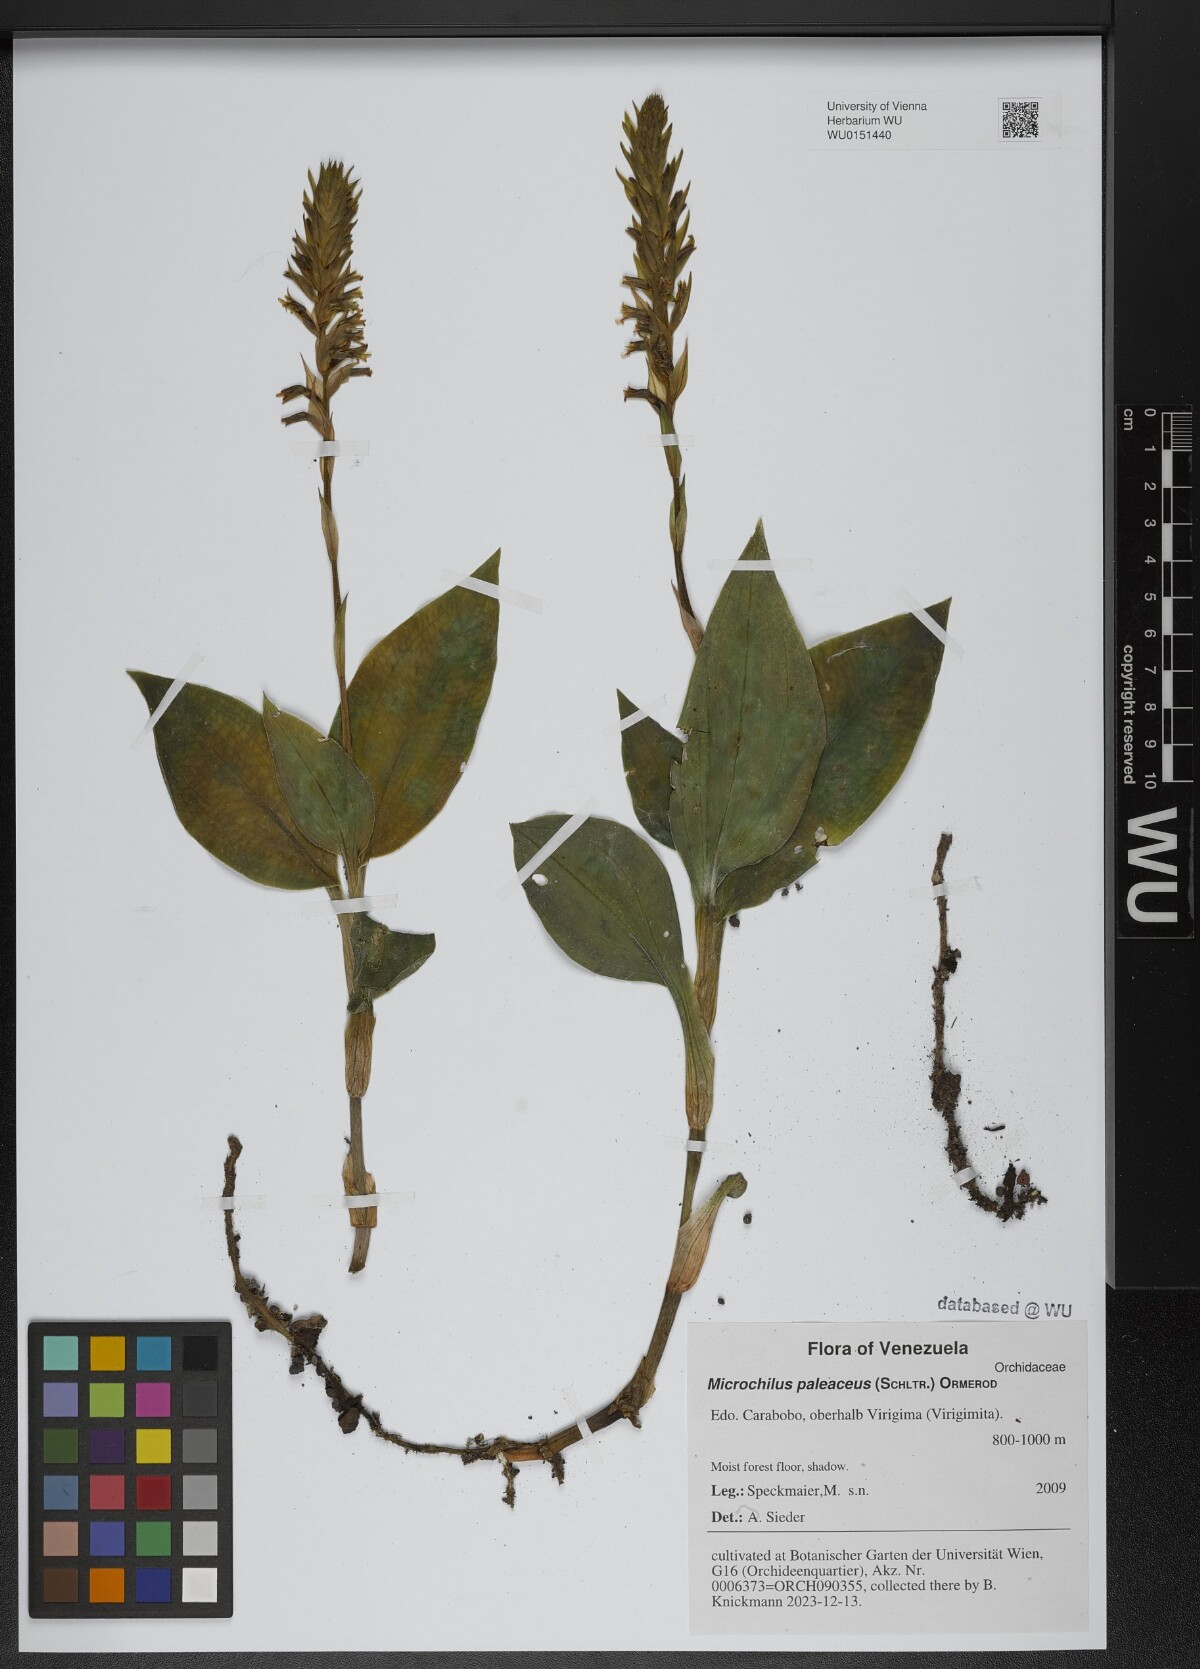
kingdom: Plantae
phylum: Tracheophyta
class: Liliopsida
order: Asparagales
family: Orchidaceae
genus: Microchilus
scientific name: Microchilus paleaceus
